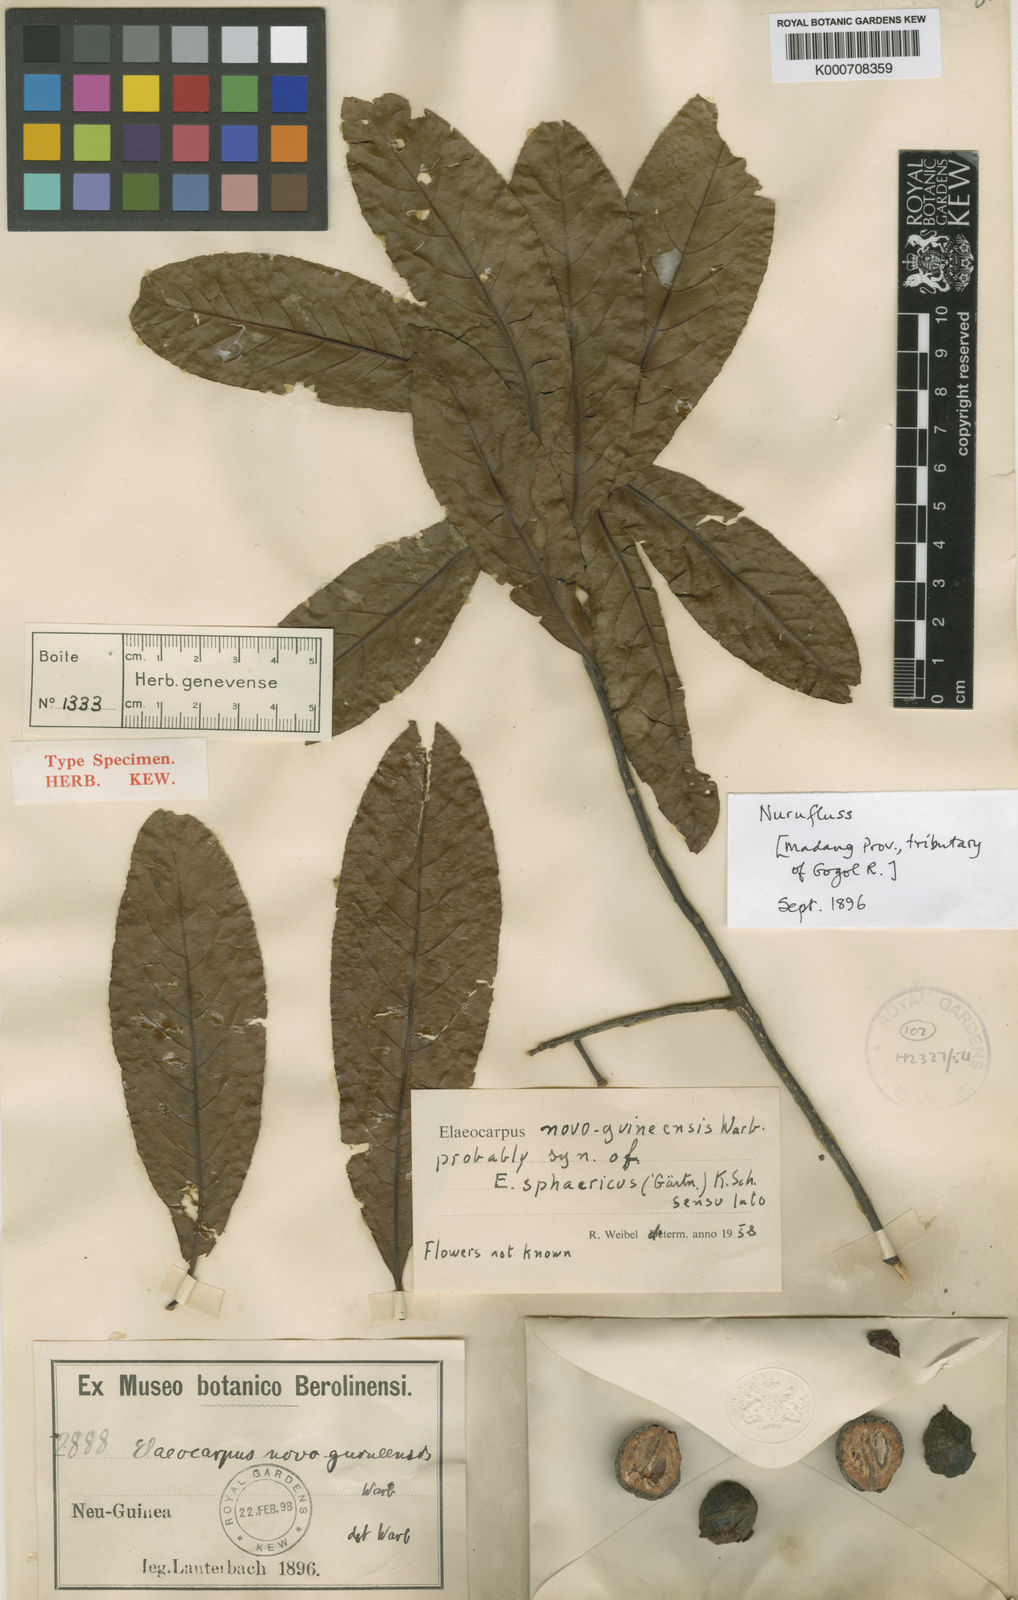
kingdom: Plantae
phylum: Tracheophyta
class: Magnoliopsida
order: Oxalidales
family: Elaeocarpaceae
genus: Elaeocarpus
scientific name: Elaeocarpus sphaericus
